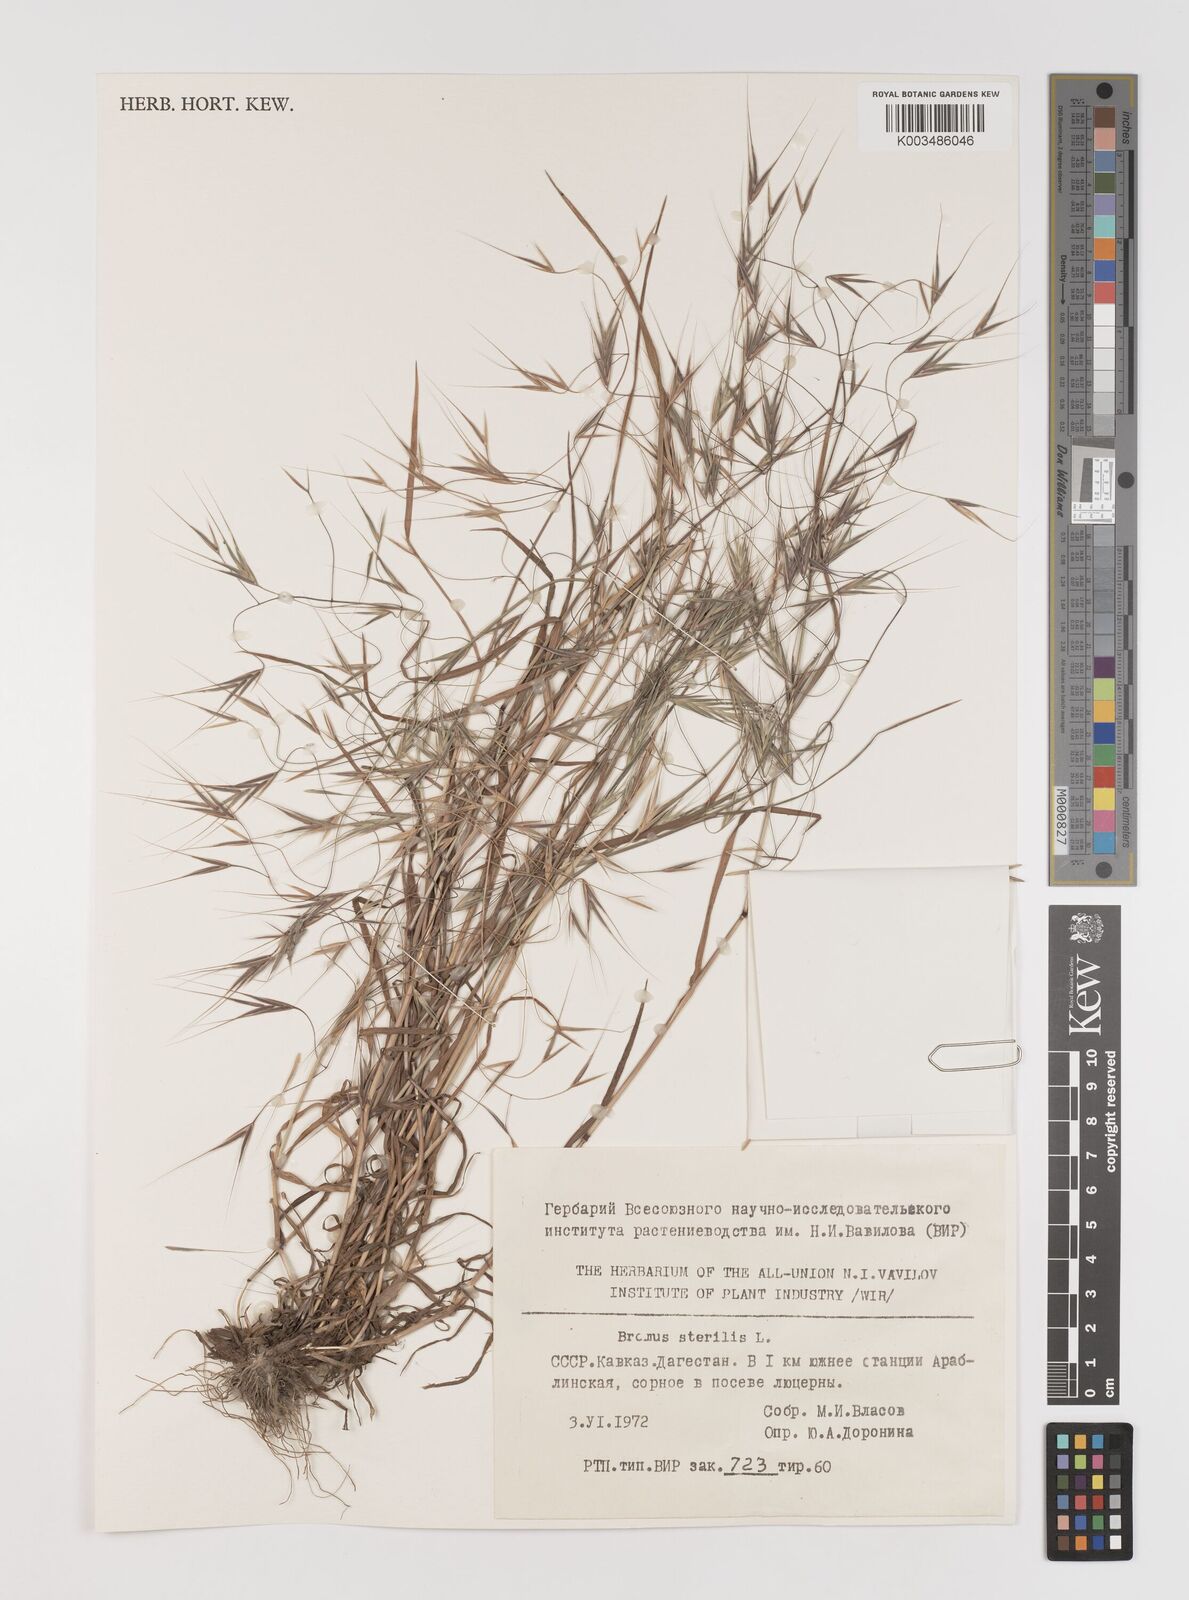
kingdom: Plantae
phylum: Tracheophyta
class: Liliopsida
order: Poales
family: Poaceae
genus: Bromus
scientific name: Bromus sterilis
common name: Poverty brome
